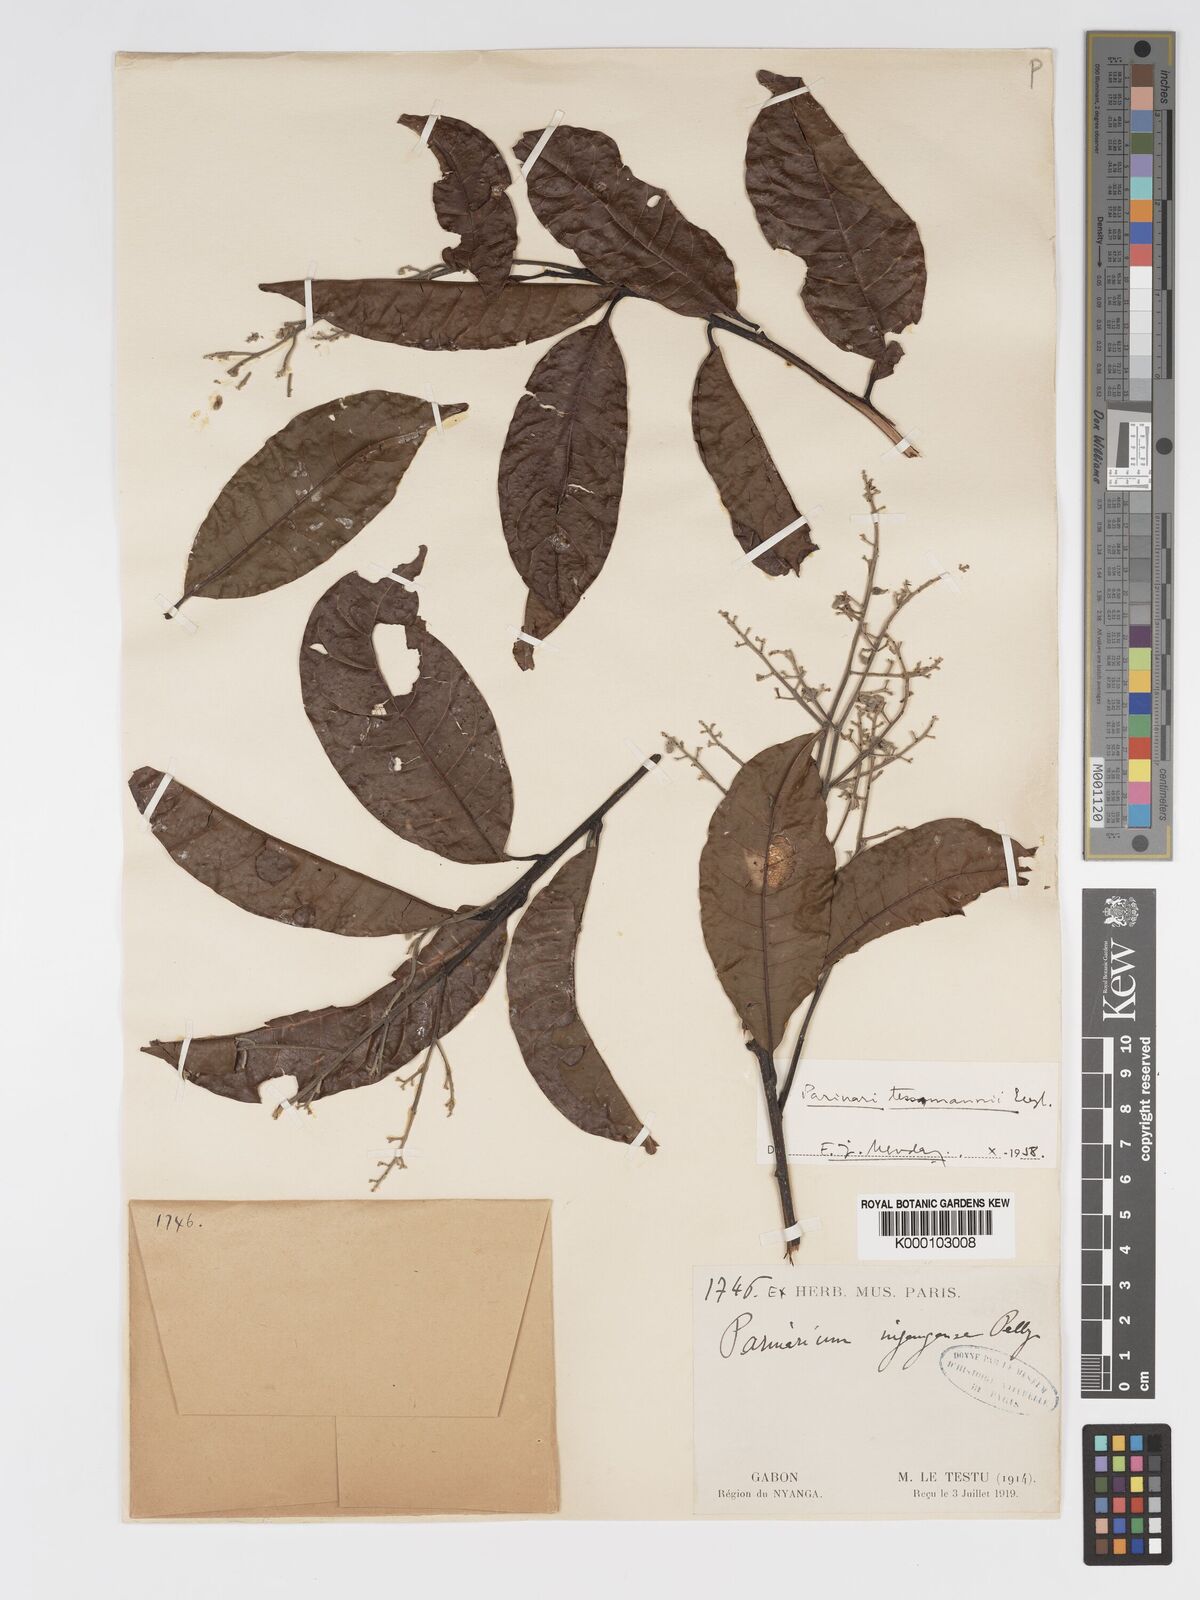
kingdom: Plantae
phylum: Tracheophyta
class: Magnoliopsida
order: Malpighiales
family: Chrysobalanaceae
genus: Magnistipula
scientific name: Magnistipula tessmannii
